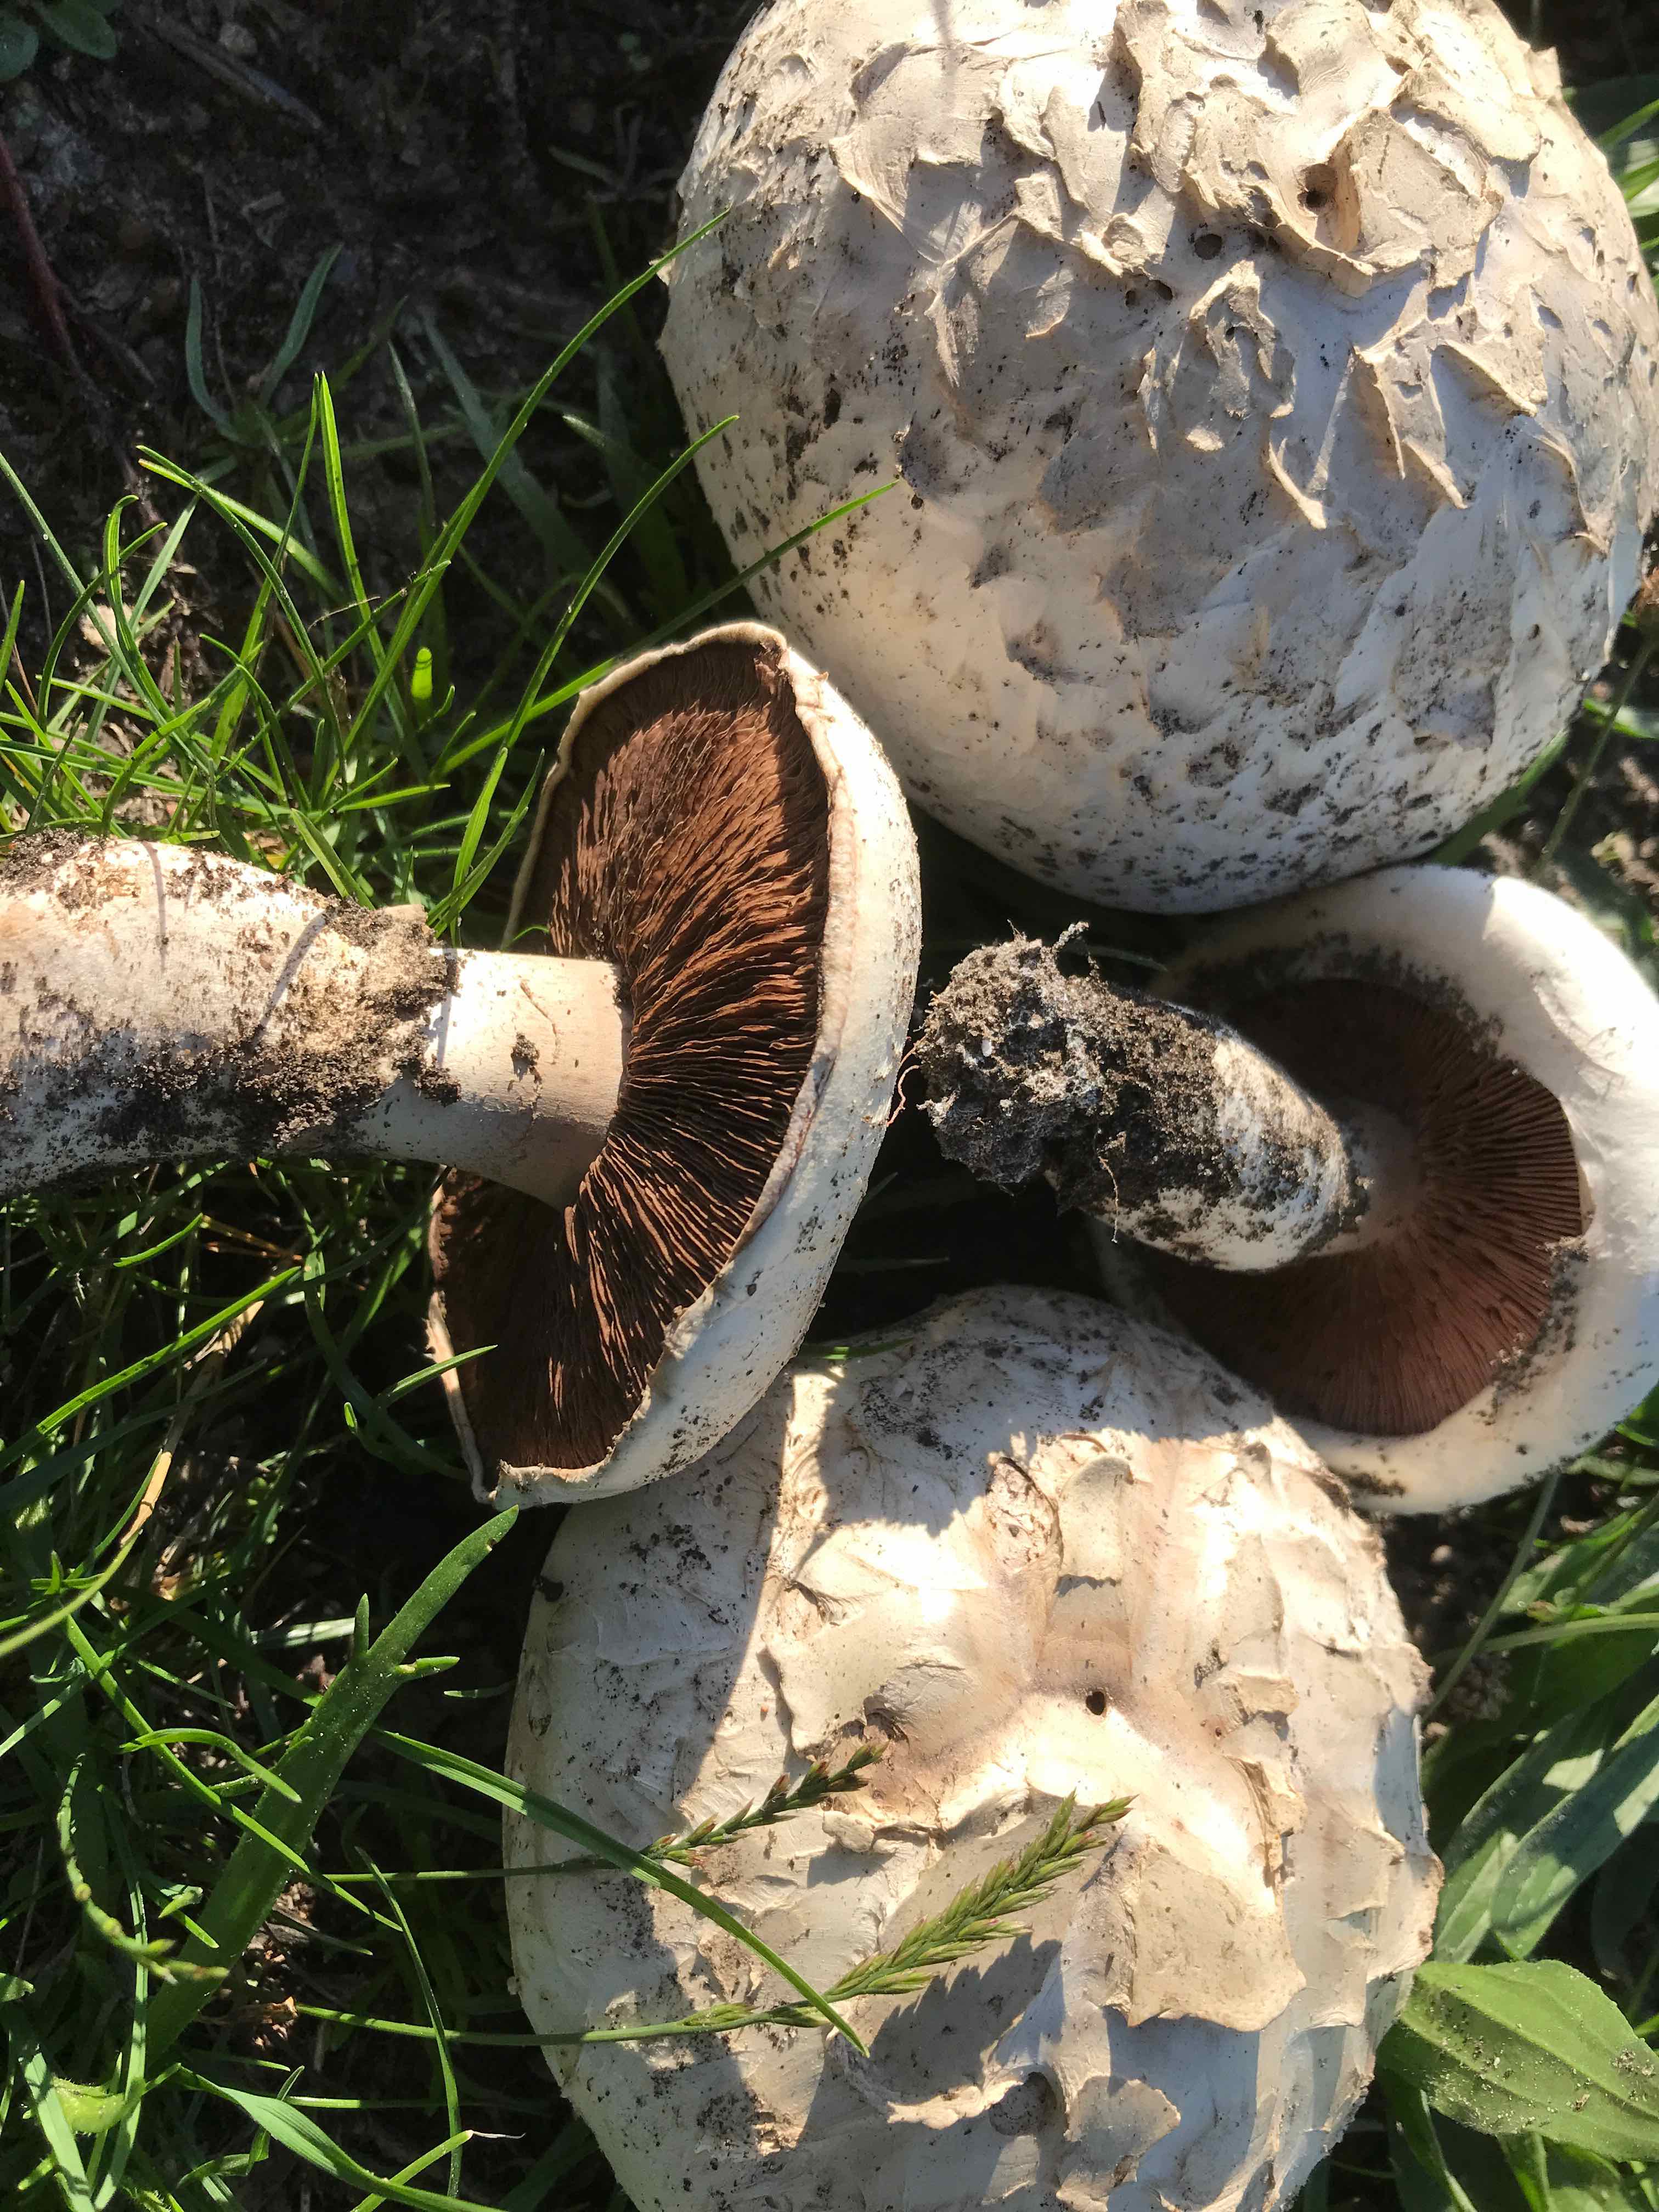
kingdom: Fungi
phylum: Basidiomycota
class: Agaricomycetes
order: Agaricales
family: Agaricaceae
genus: Agaricus
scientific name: Agaricus bernardii
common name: strandengs-champignon
